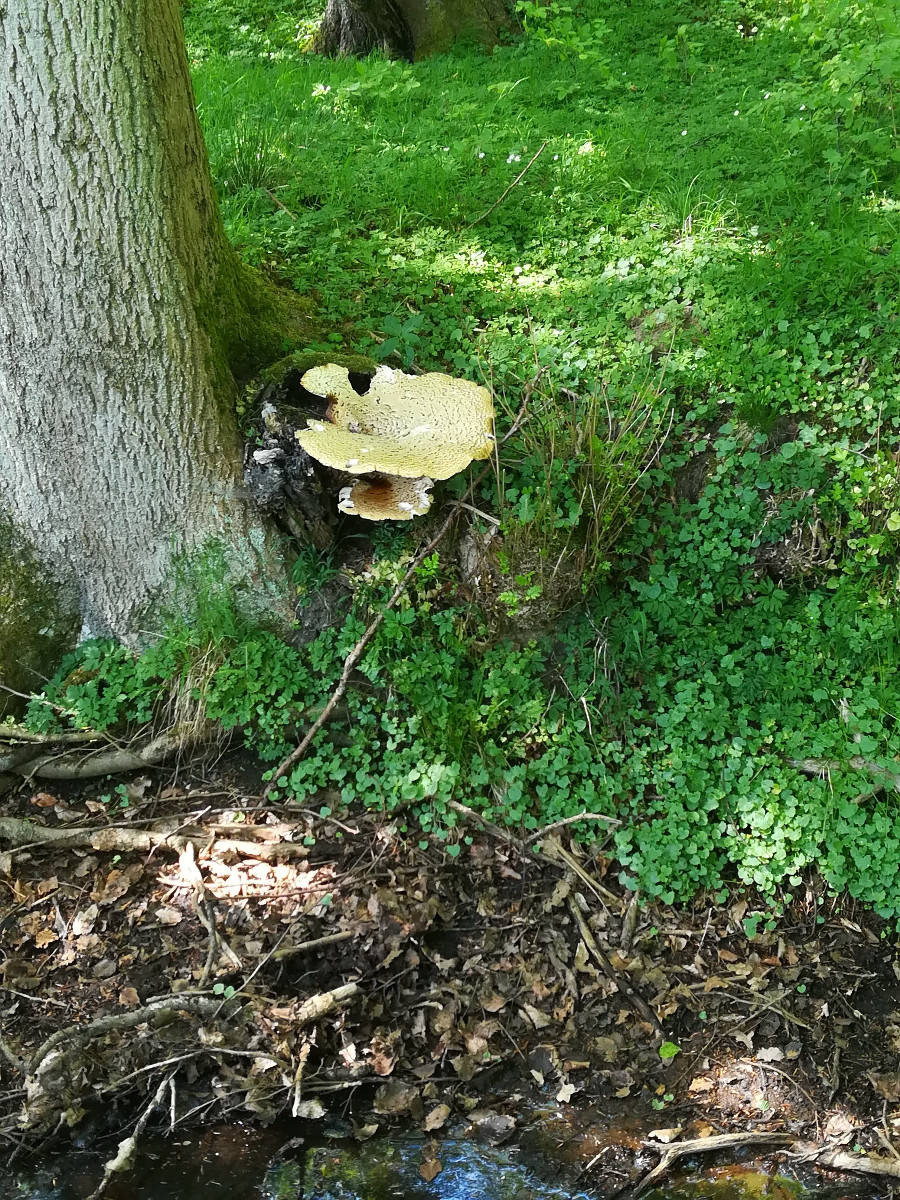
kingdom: Fungi
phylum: Basidiomycota
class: Agaricomycetes
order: Polyporales
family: Polyporaceae
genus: Cerioporus
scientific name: Cerioporus squamosus
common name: skællet stilkporesvamp
